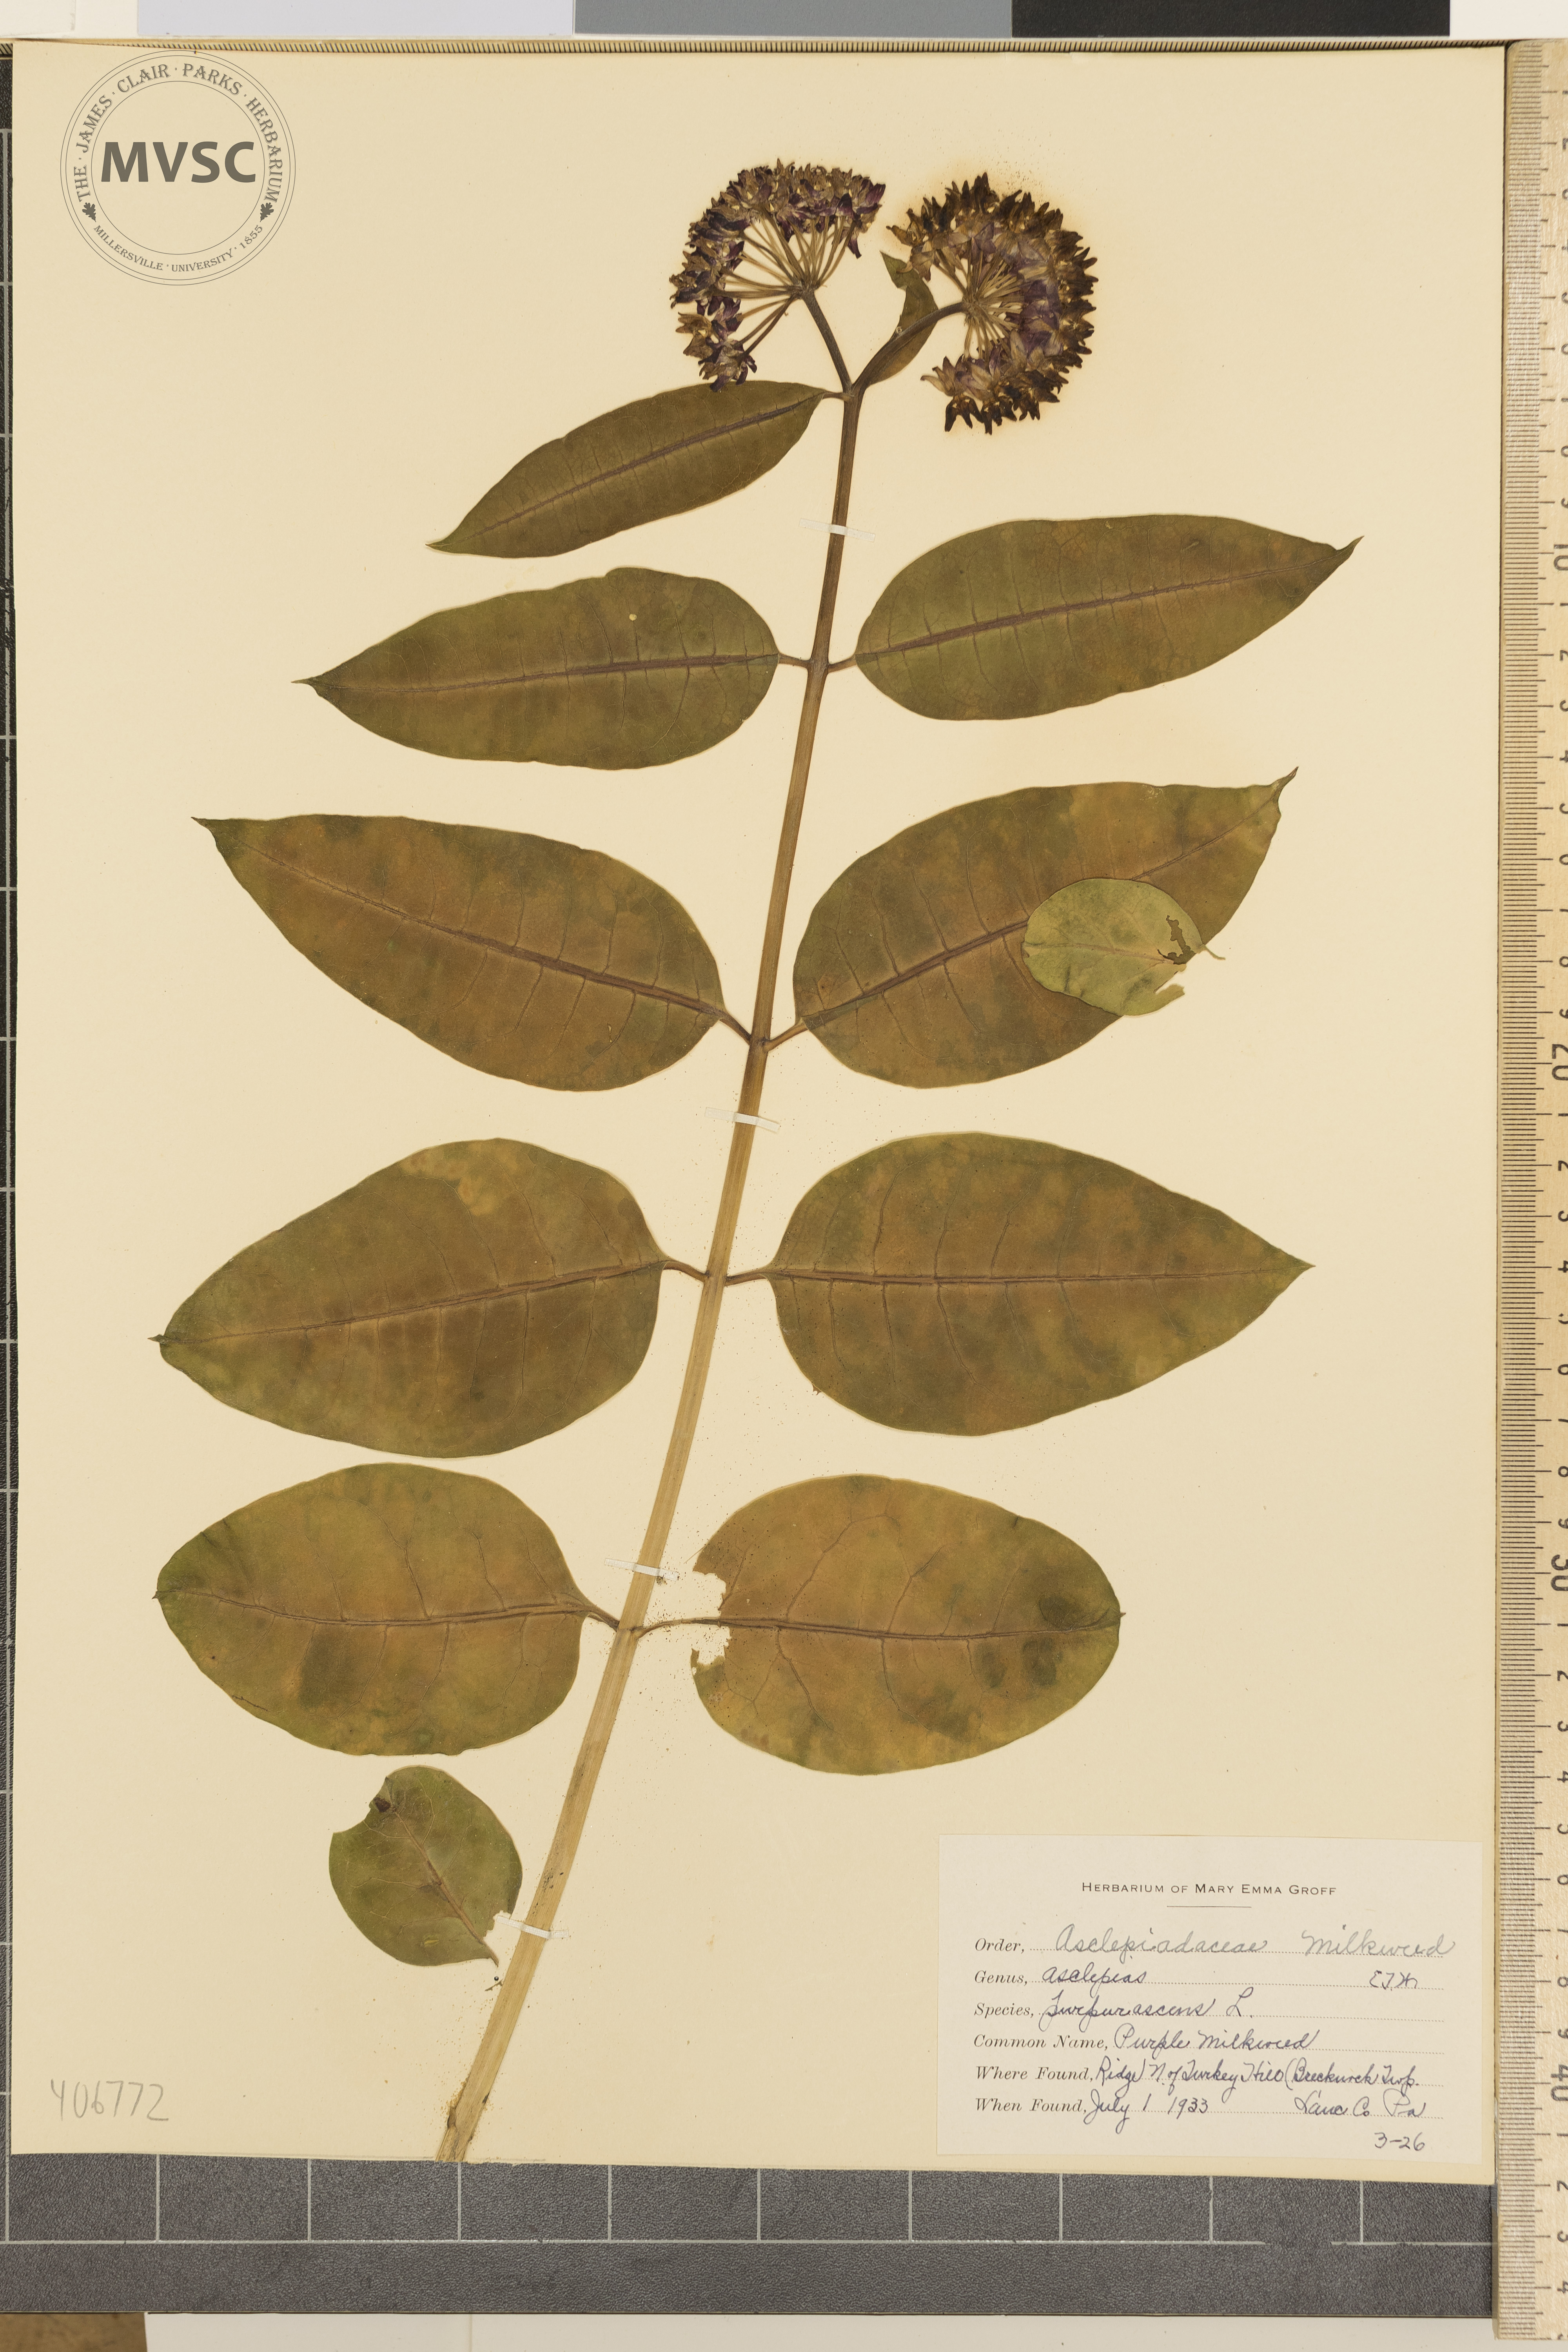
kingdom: Plantae
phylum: Tracheophyta
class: Magnoliopsida
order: Gentianales
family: Apocynaceae
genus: Asclepias
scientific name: Asclepias purpurascens
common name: Purple Milkweed
